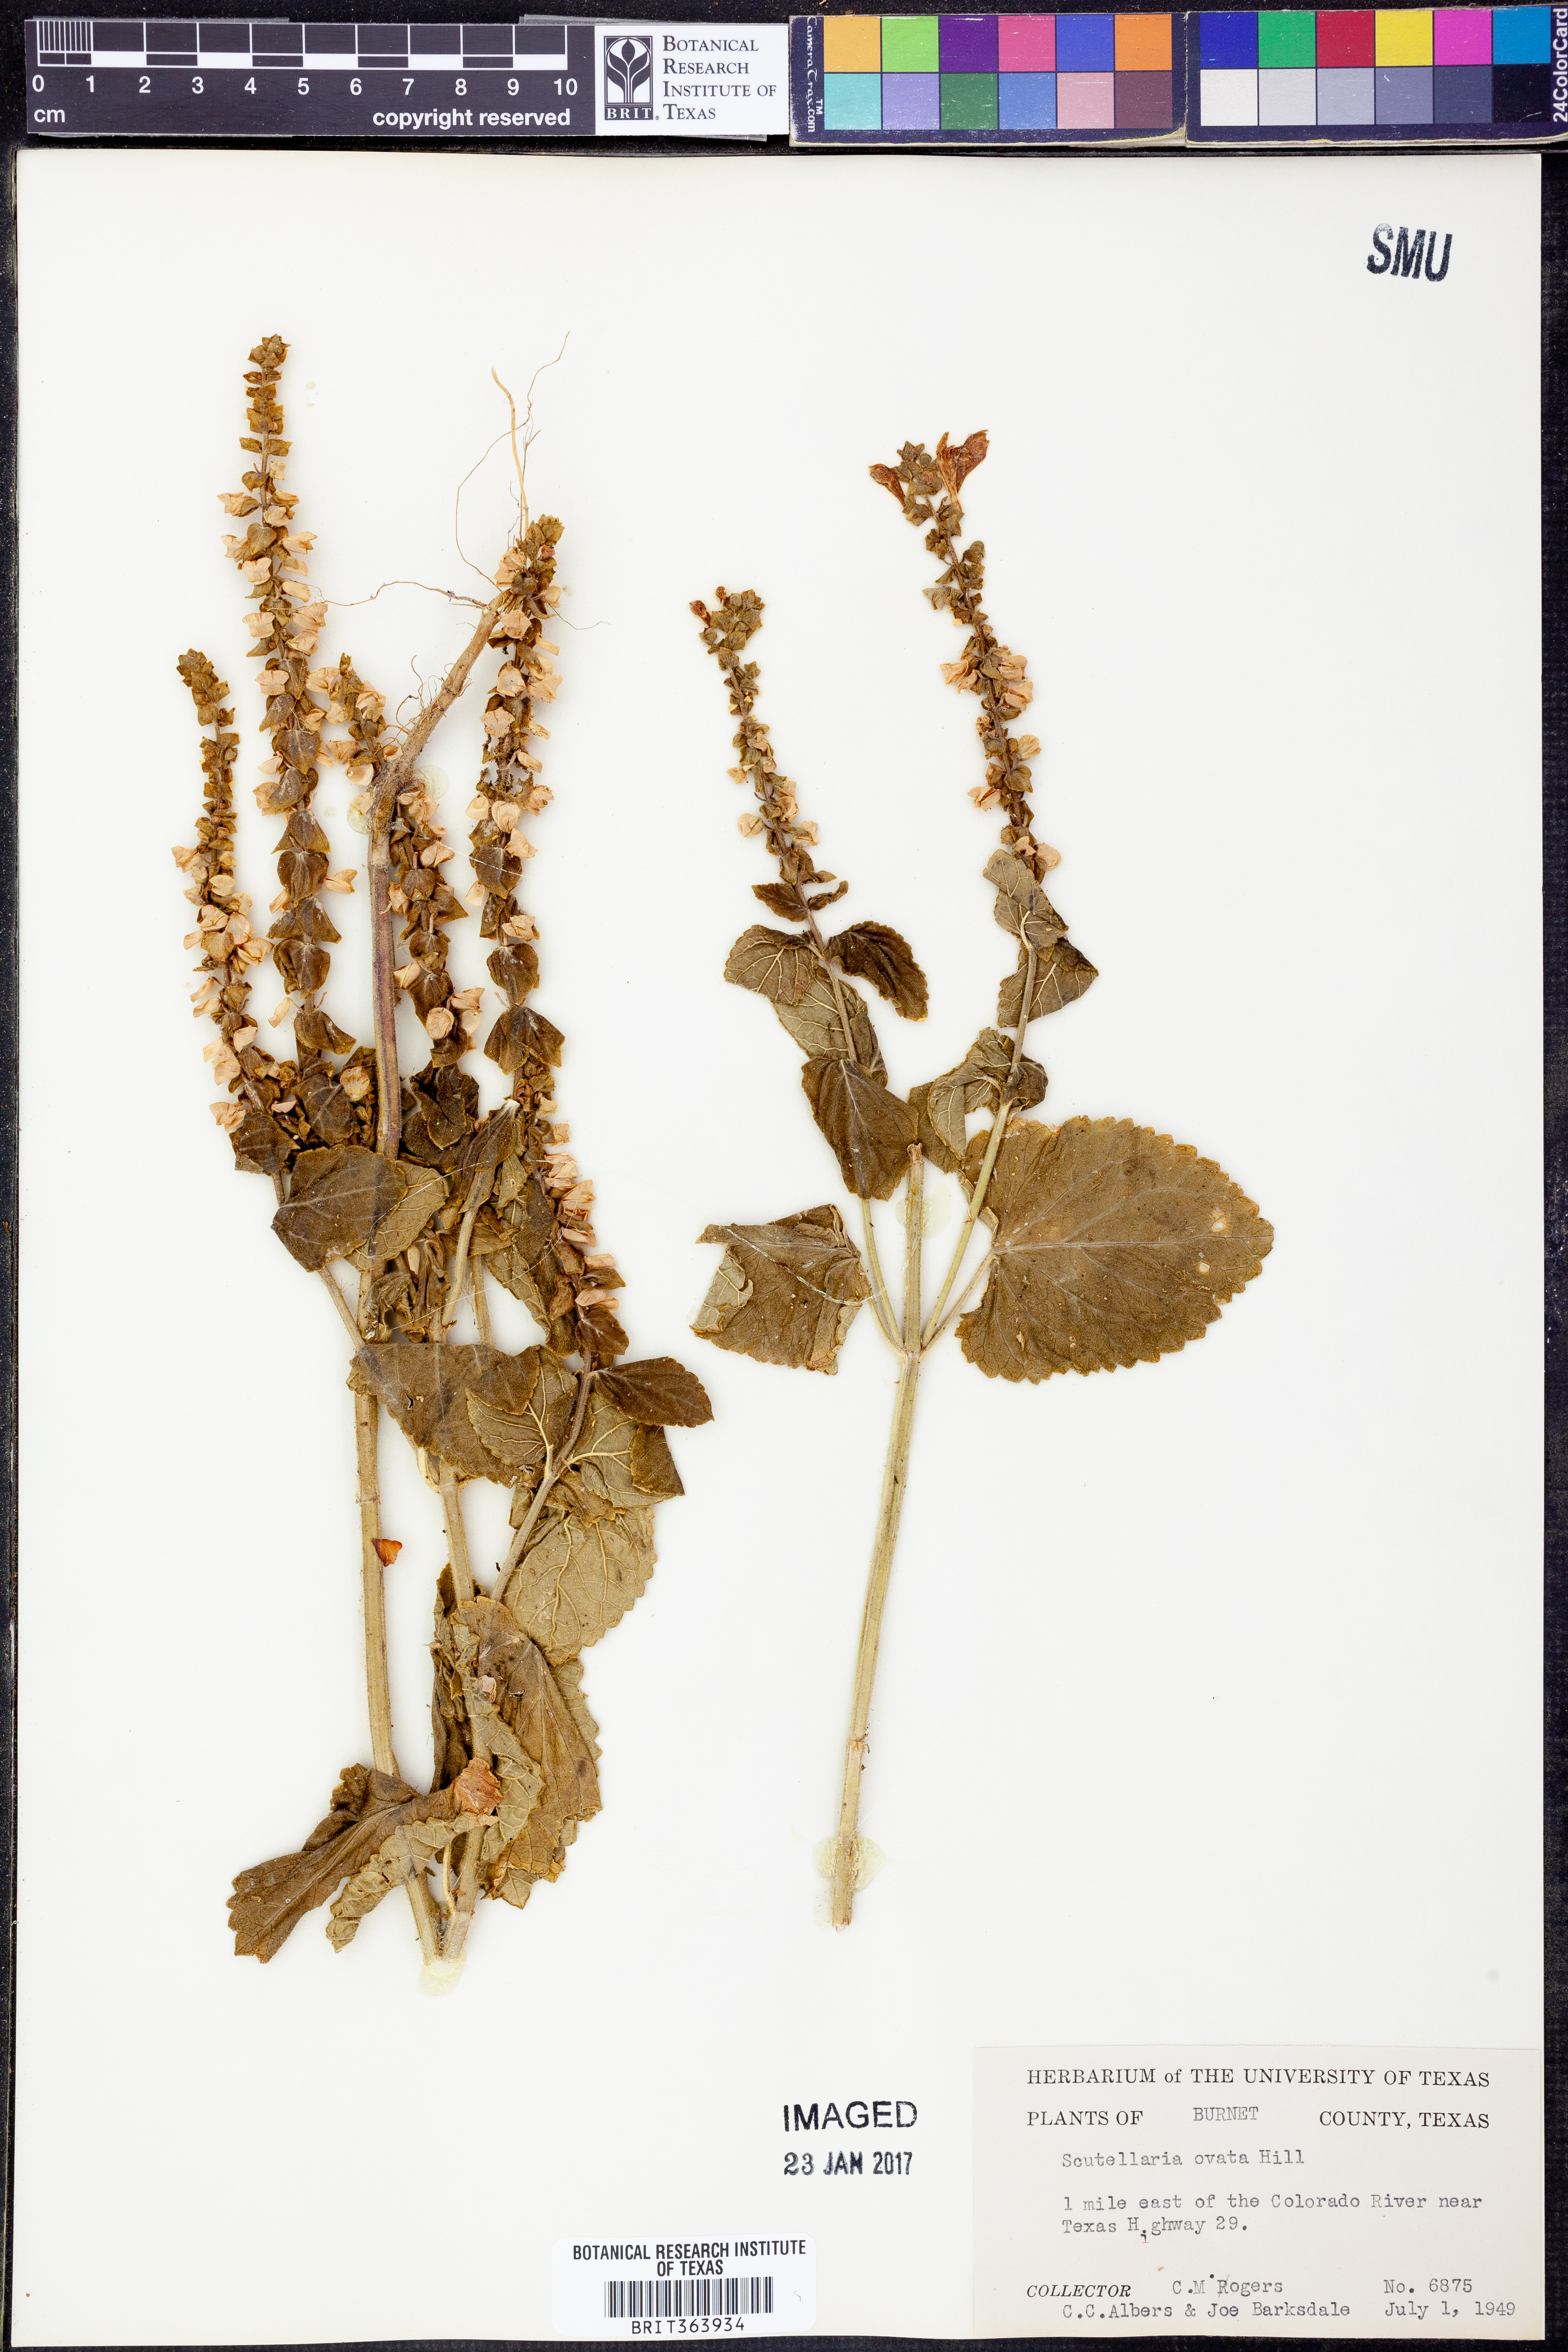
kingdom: Plantae
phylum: Tracheophyta
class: Magnoliopsida
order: Lamiales
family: Lamiaceae
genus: Scutellaria
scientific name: Scutellaria ovata
